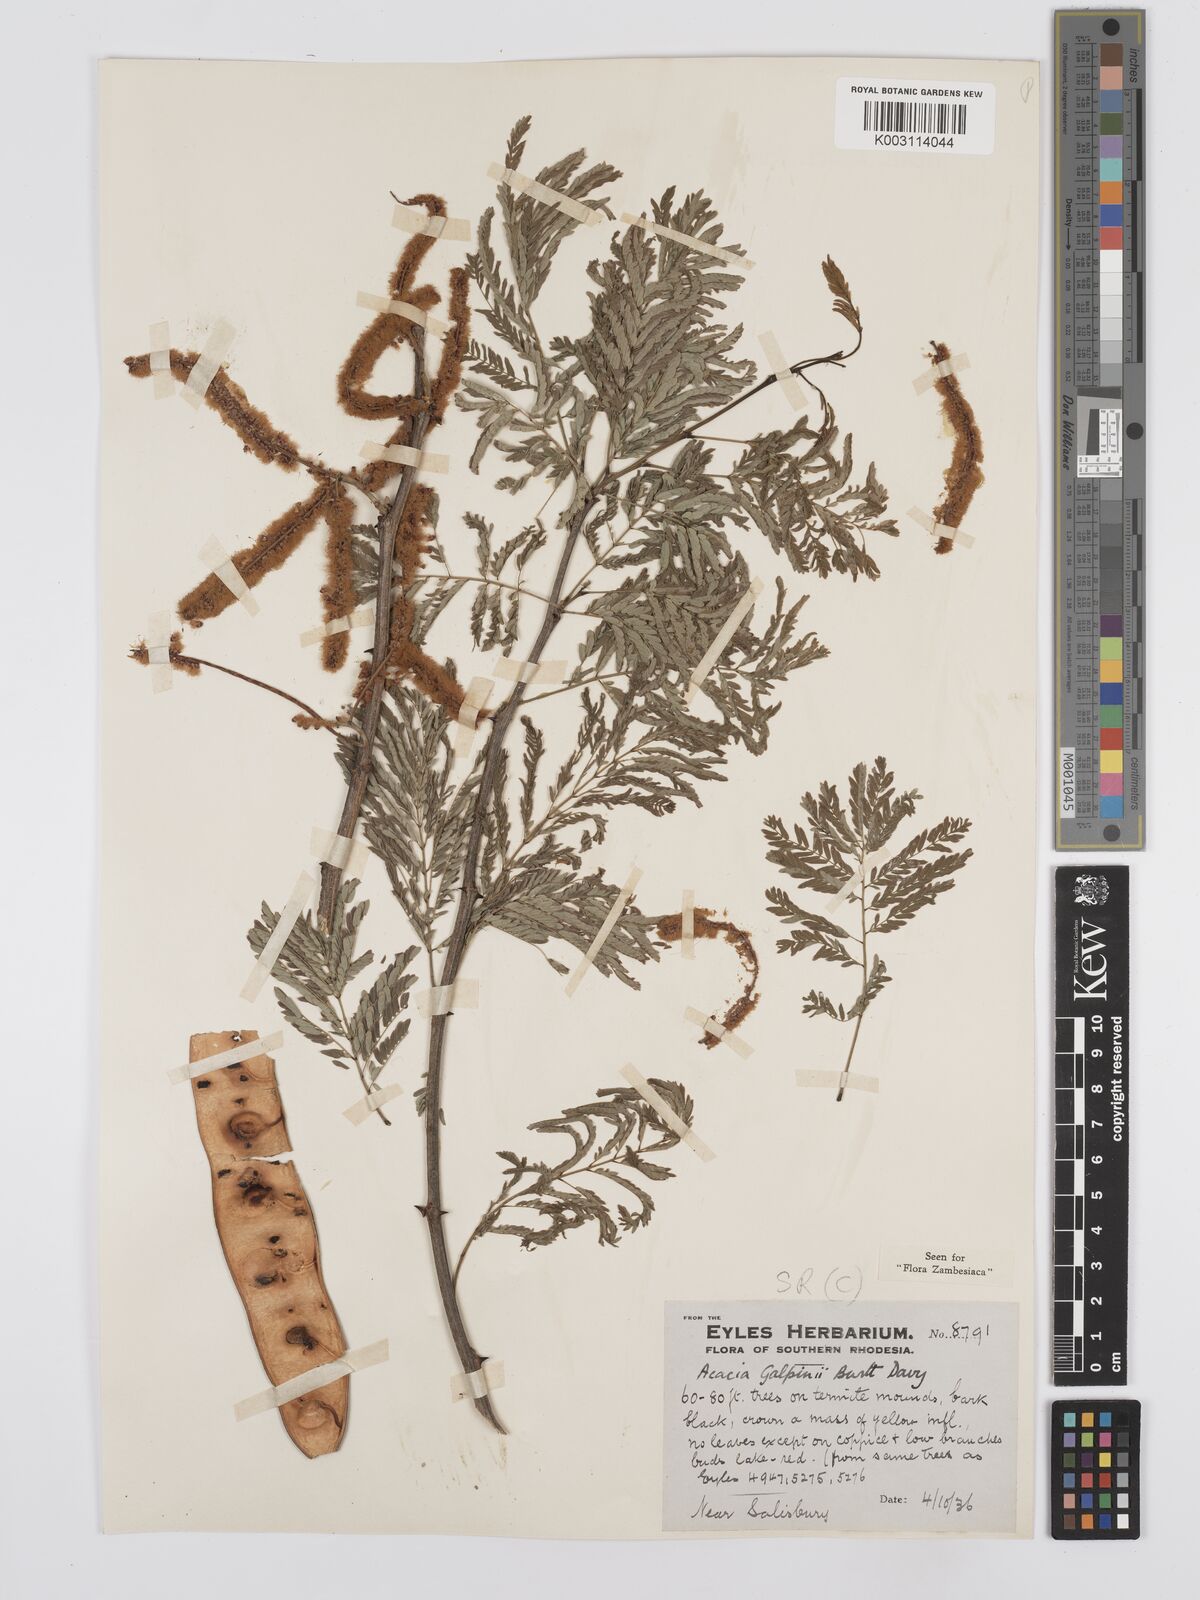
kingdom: Plantae
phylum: Tracheophyta
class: Magnoliopsida
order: Fabales
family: Fabaceae
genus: Senegalia
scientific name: Senegalia galpinii
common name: Monkey-thorn
